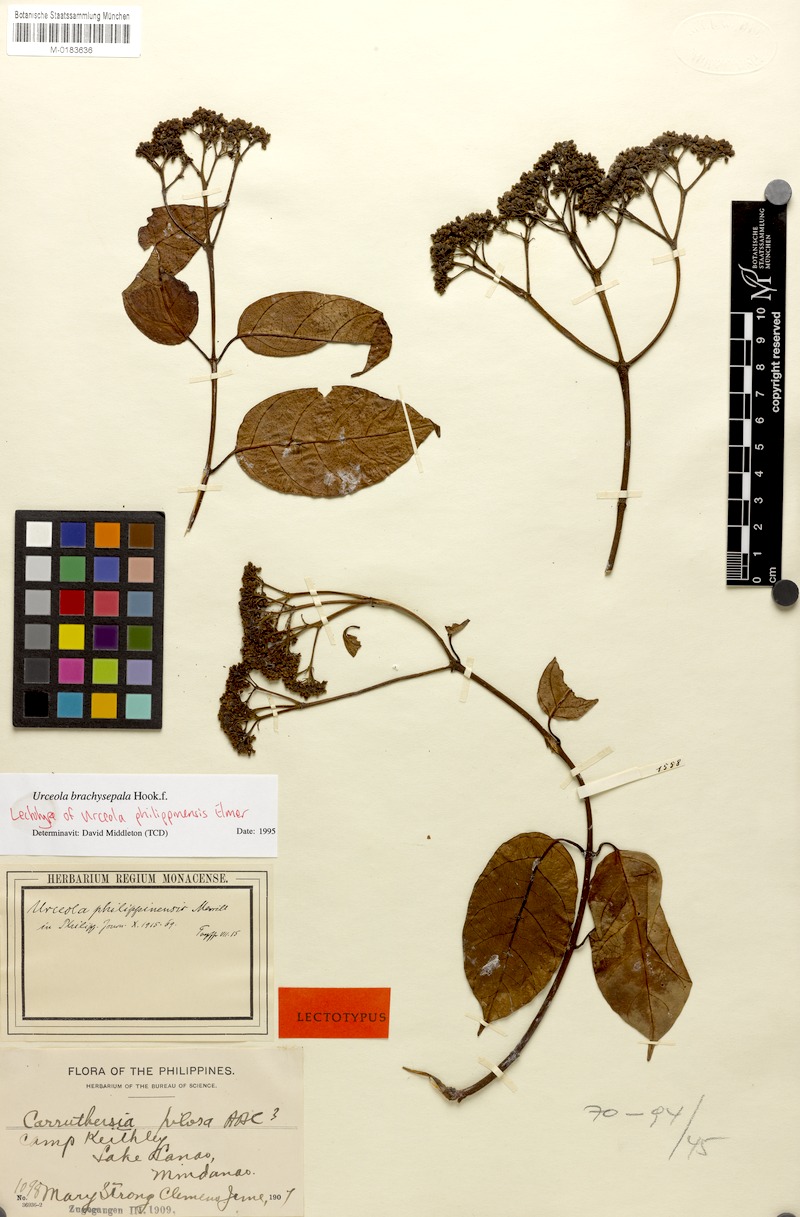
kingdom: Plantae
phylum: Tracheophyta
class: Magnoliopsida
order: Gentianales
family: Apocynaceae
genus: Urceola
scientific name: Urceola brachysepala
